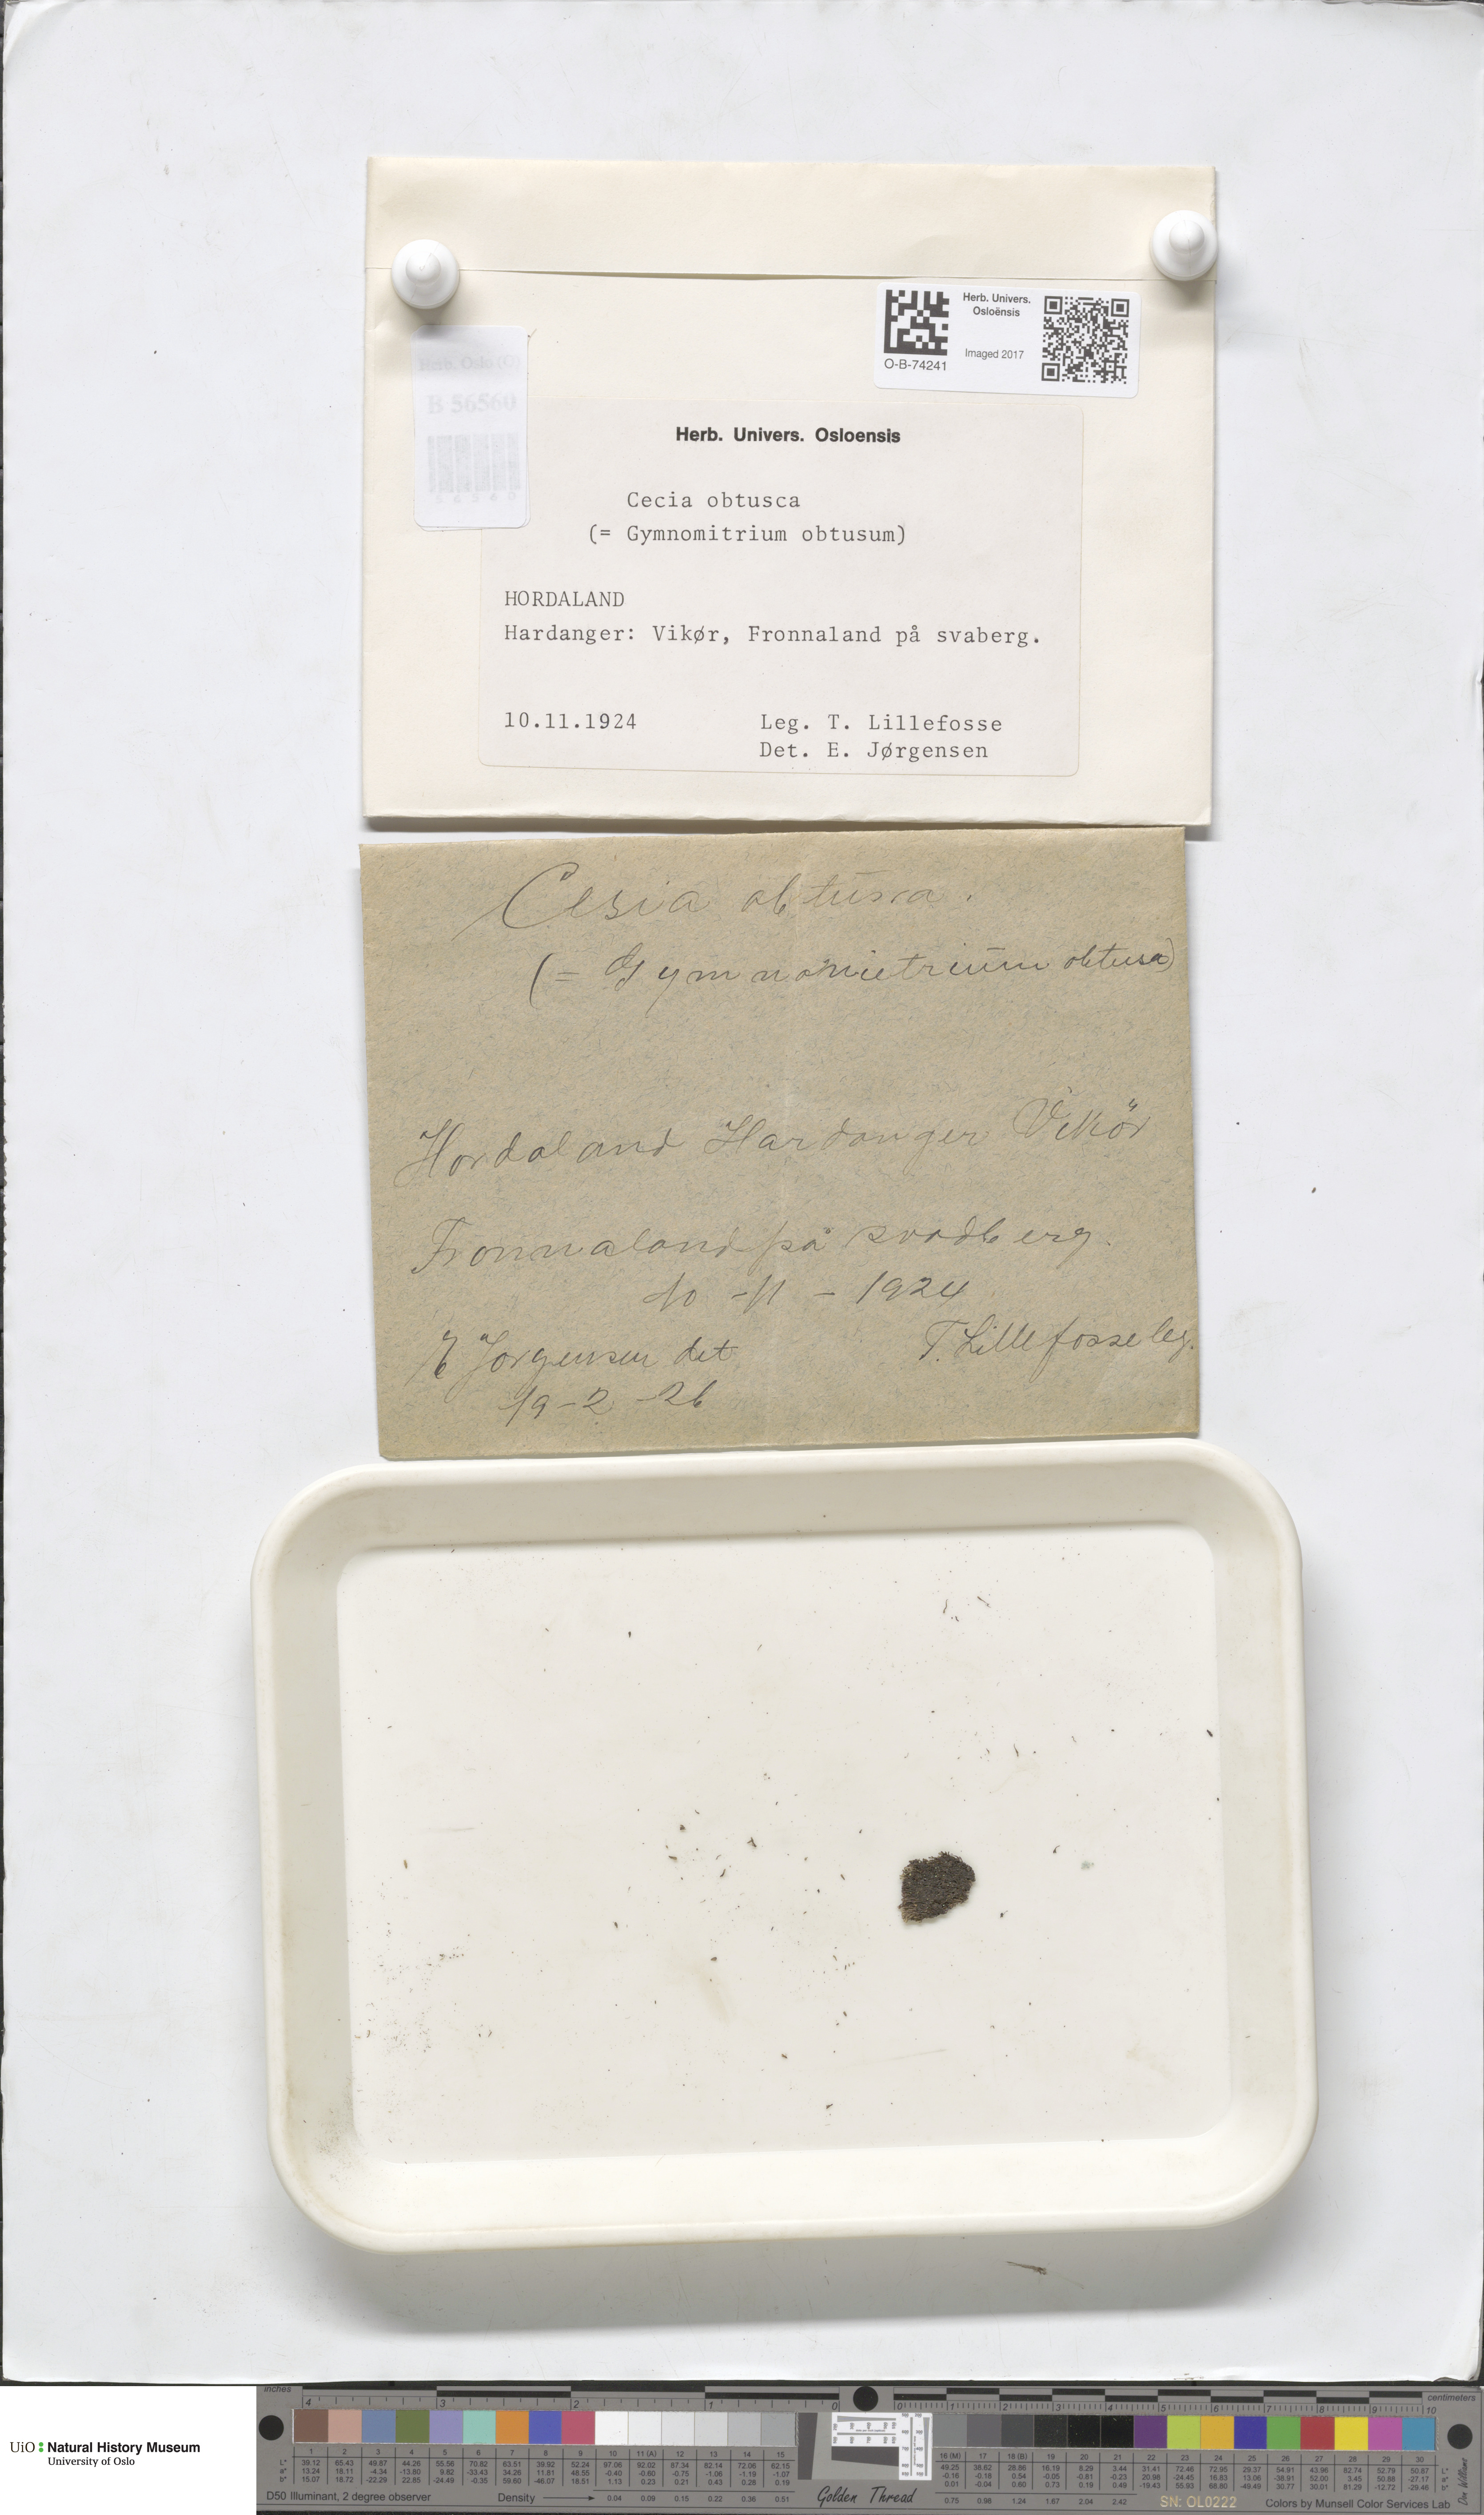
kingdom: Plantae
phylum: Marchantiophyta
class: Jungermanniopsida
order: Jungermanniales
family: Gymnomitriaceae
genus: Gymnomitrion
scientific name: Gymnomitrion obtusum
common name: White frostwort
